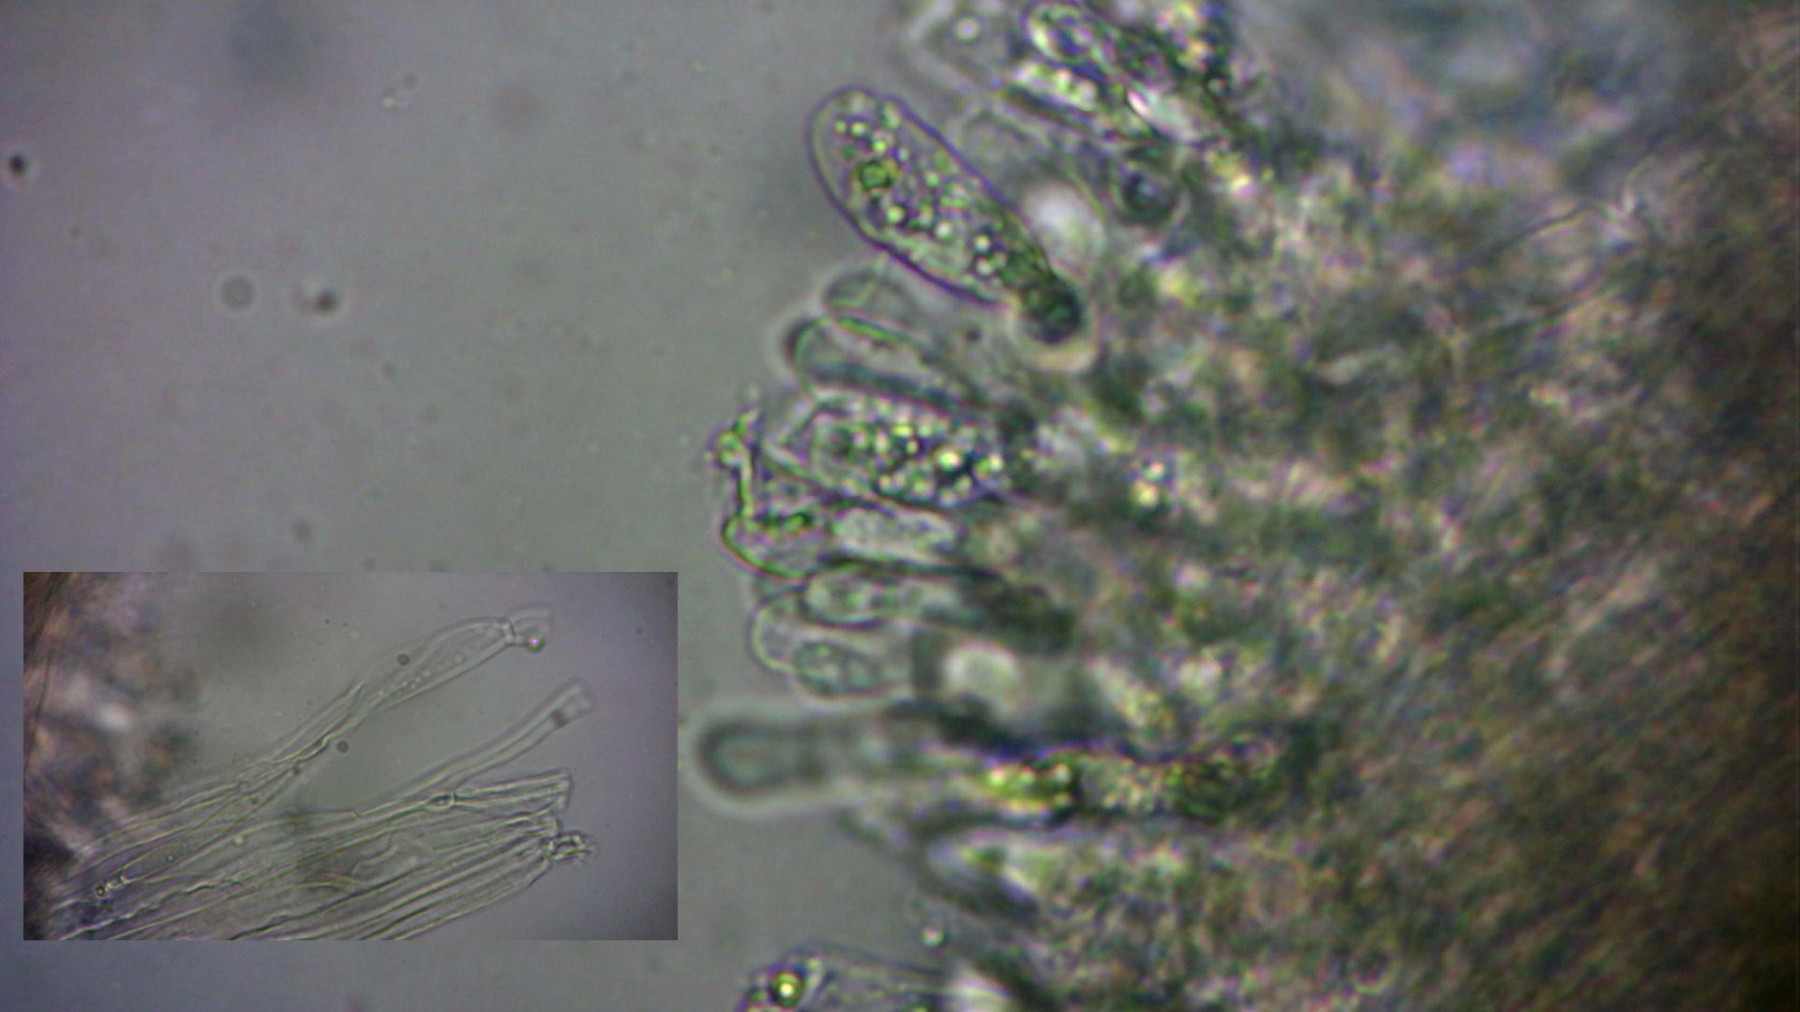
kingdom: Fungi
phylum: Basidiomycota
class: Agaricomycetes
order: Agaricales
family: Entolomataceae
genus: Entoloma
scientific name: Entoloma
